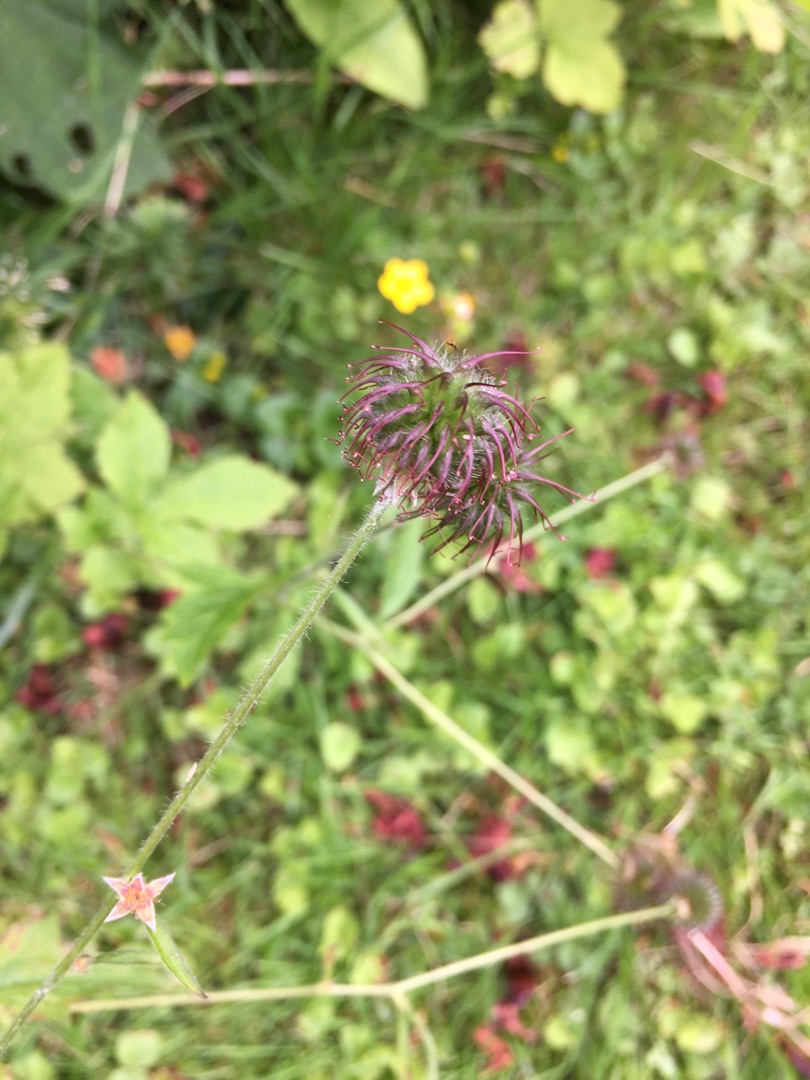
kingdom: Plantae
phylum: Tracheophyta
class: Magnoliopsida
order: Rosales
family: Rosaceae
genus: Geum
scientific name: Geum urbanum
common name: Feber-nellikerod
